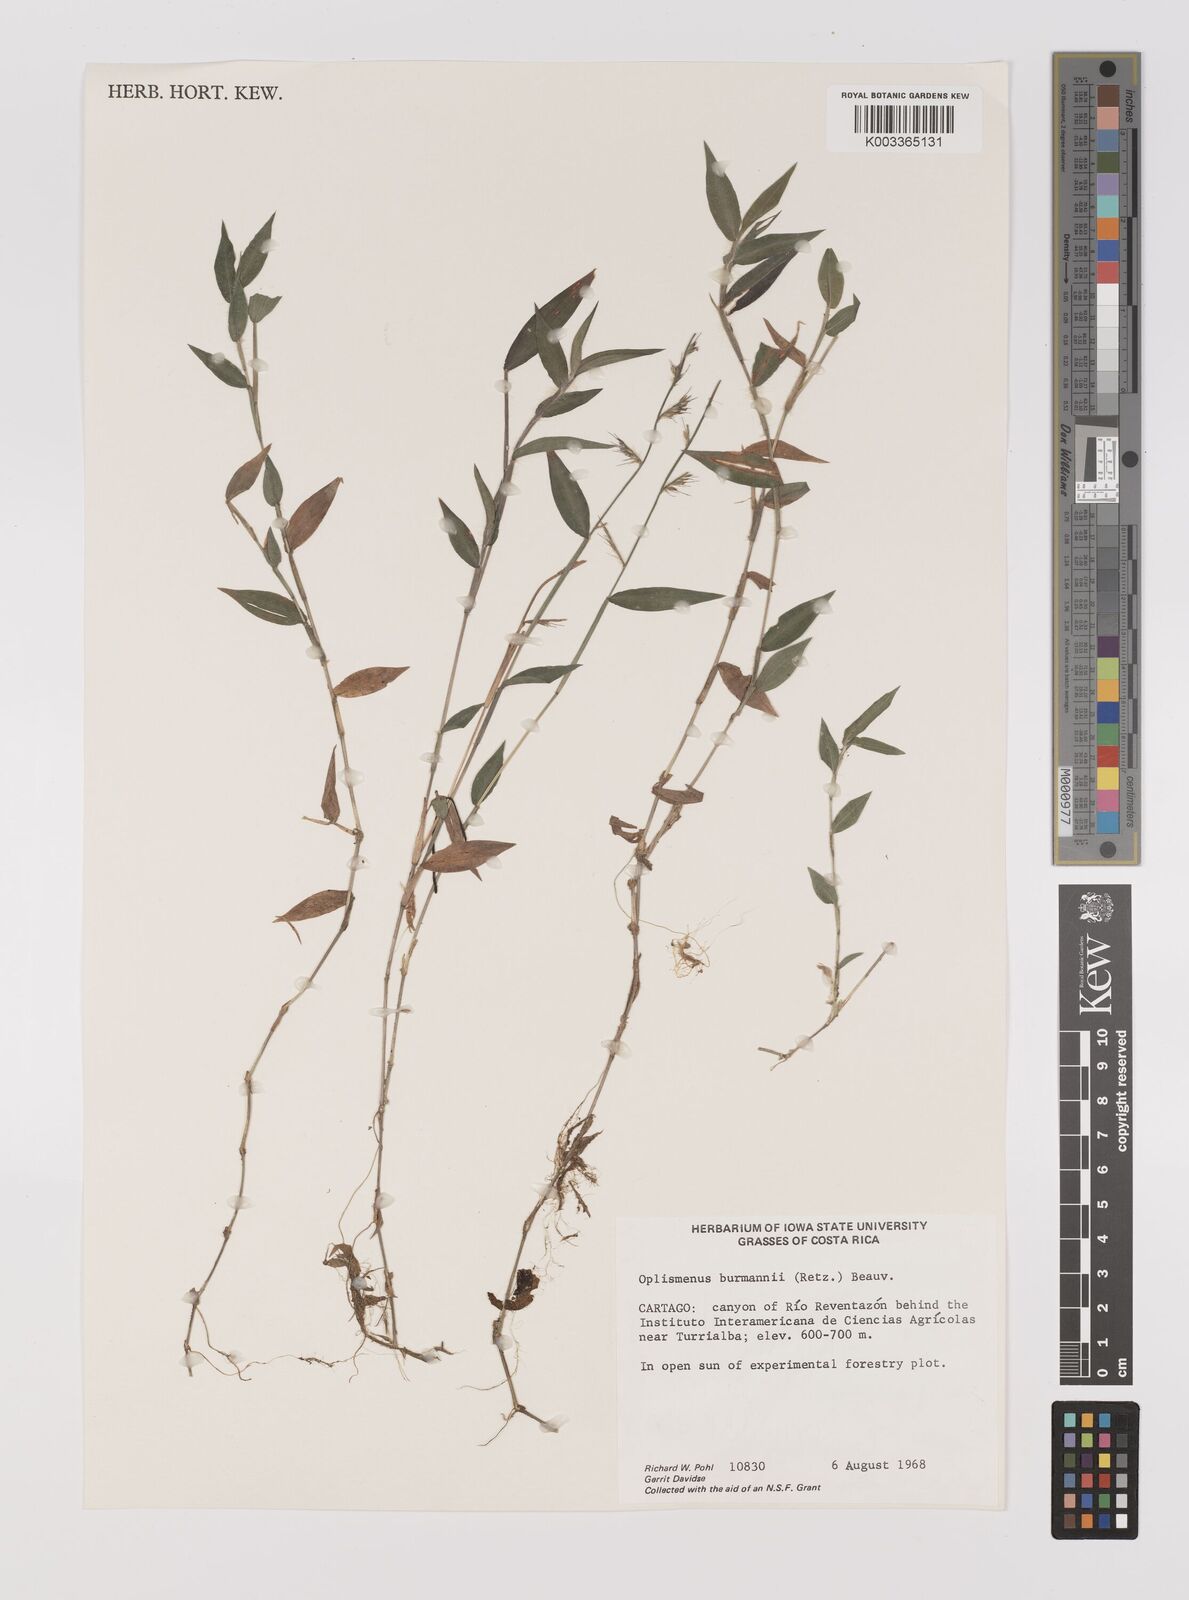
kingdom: Plantae
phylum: Tracheophyta
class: Liliopsida
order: Poales
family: Poaceae
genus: Oplismenus
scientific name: Oplismenus hirtellus
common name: Basketgrass
